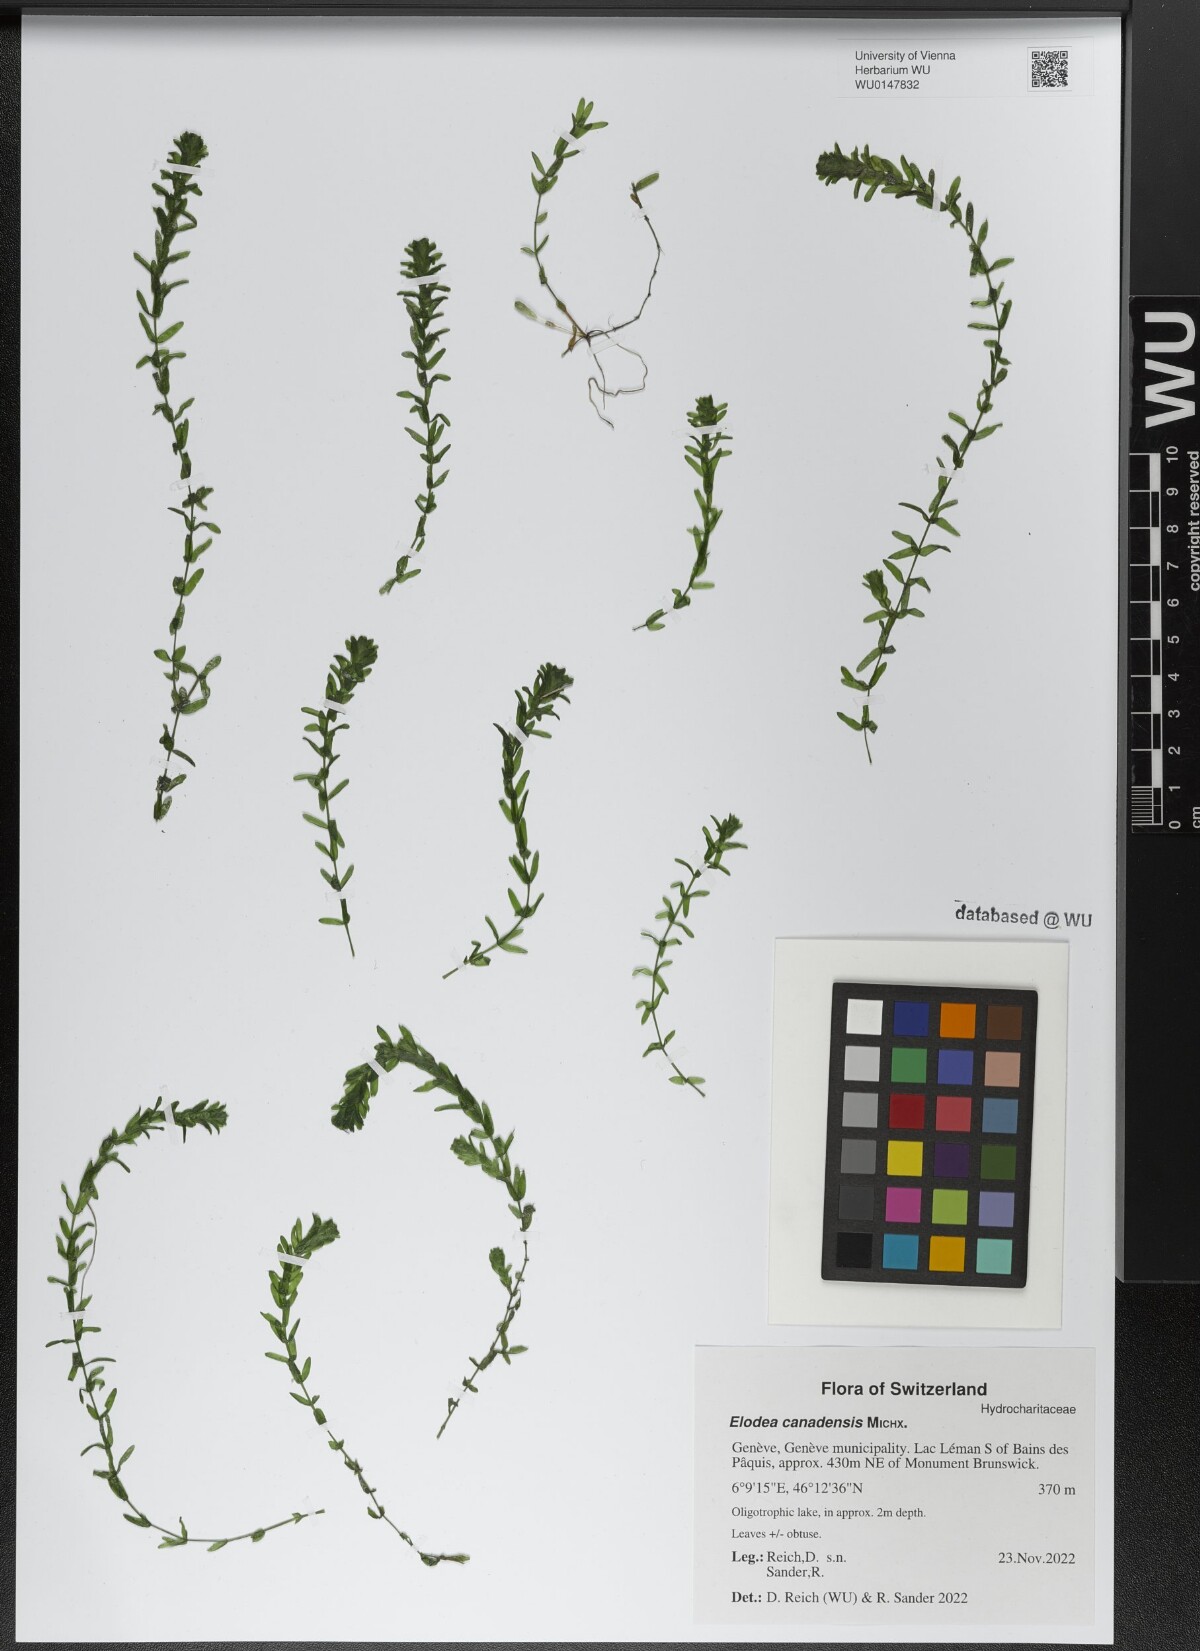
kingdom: Plantae
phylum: Tracheophyta
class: Liliopsida
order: Alismatales
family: Hydrocharitaceae
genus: Elodea
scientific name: Elodea canadensis
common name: Canadian waterweed
